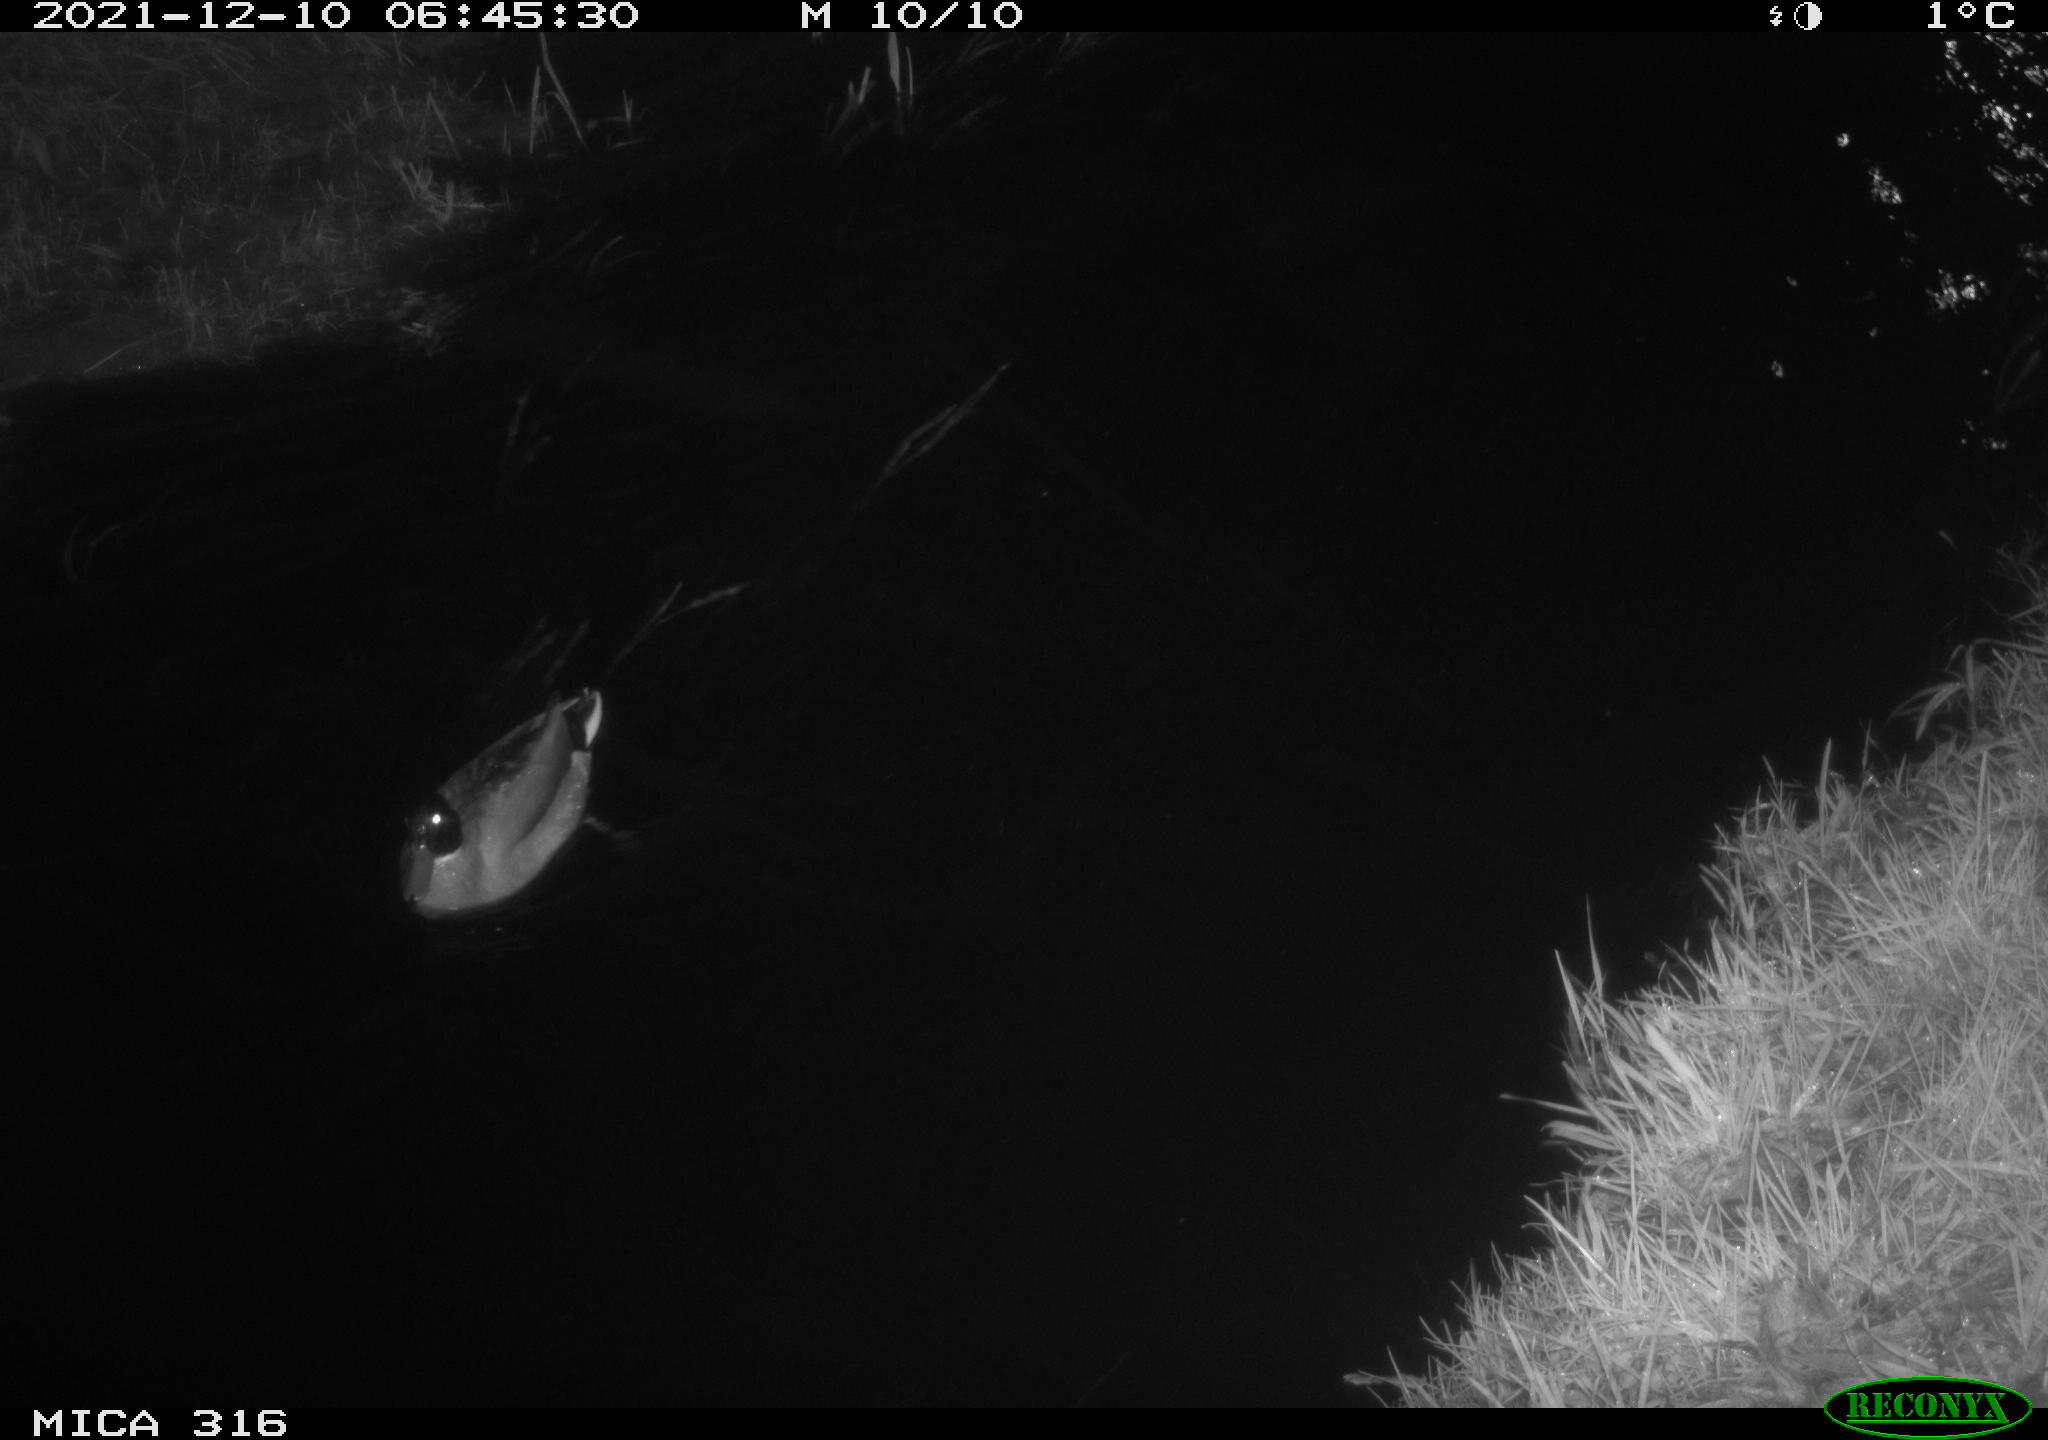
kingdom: Animalia
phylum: Chordata
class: Aves
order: Gruiformes
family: Rallidae
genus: Gallinula
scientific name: Gallinula chloropus
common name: Common moorhen
